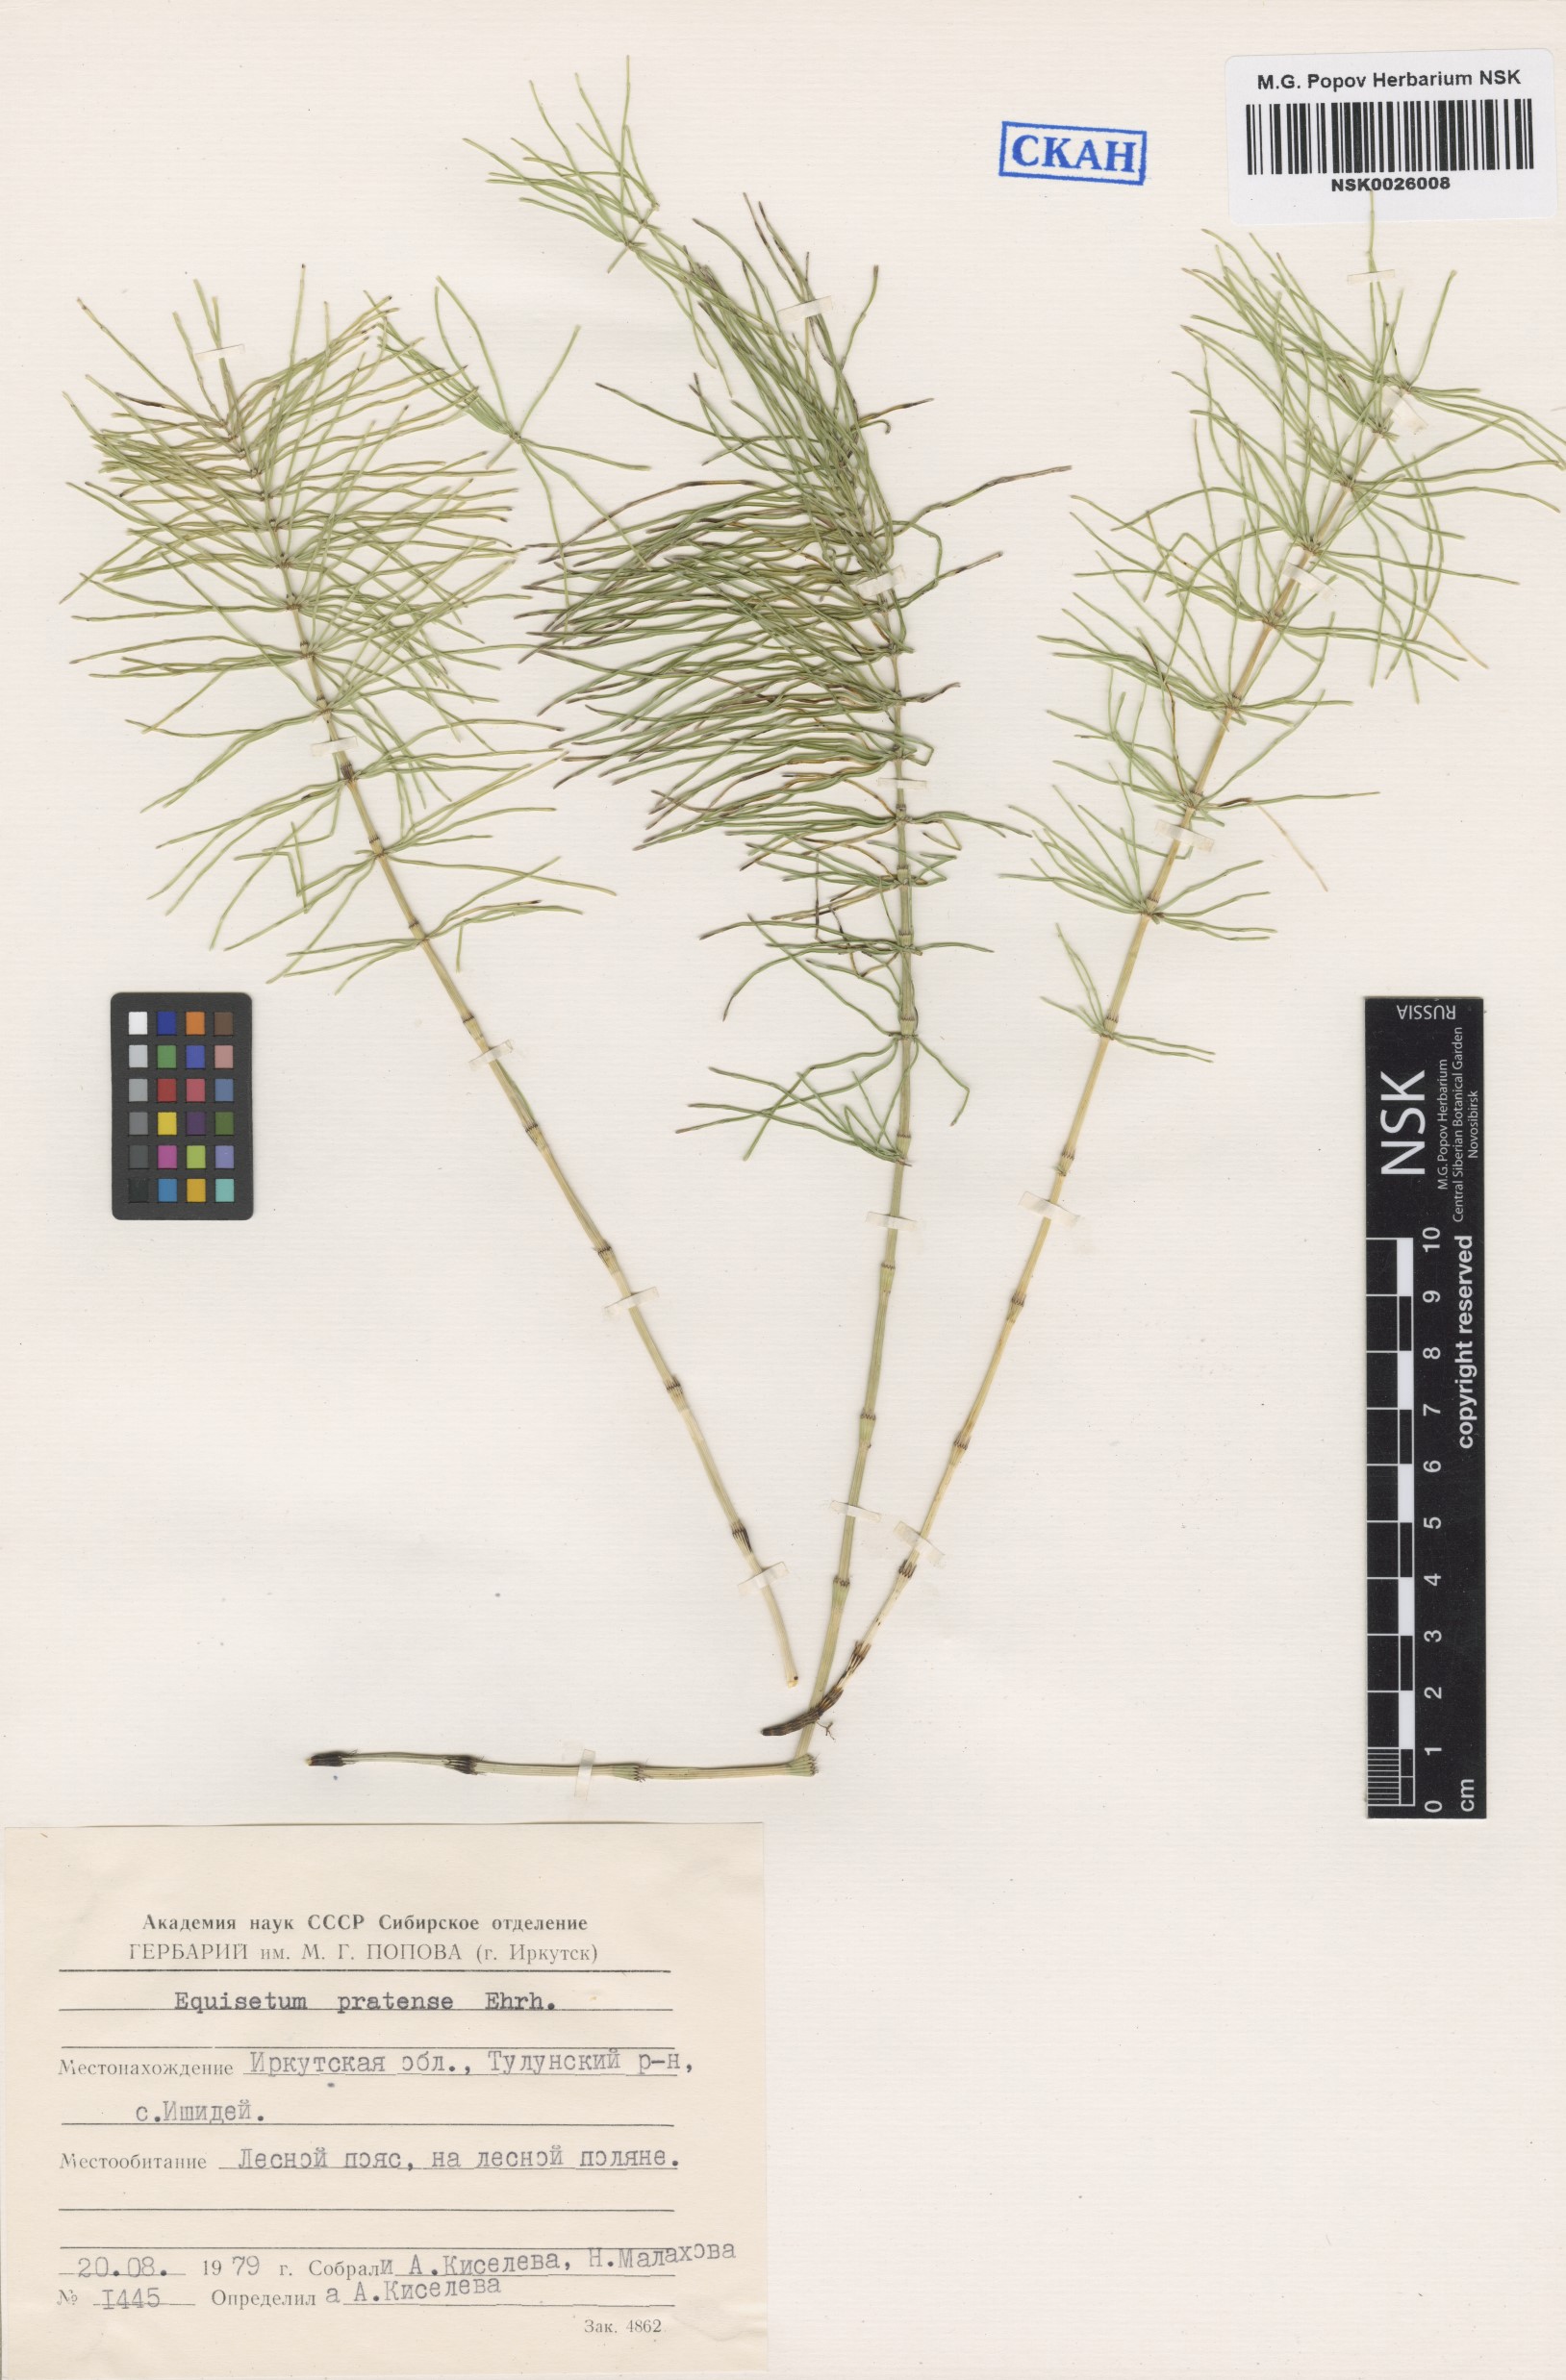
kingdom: Plantae
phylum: Tracheophyta
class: Polypodiopsida
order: Equisetales
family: Equisetaceae
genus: Equisetum
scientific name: Equisetum pratense
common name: Meadow horsetail
